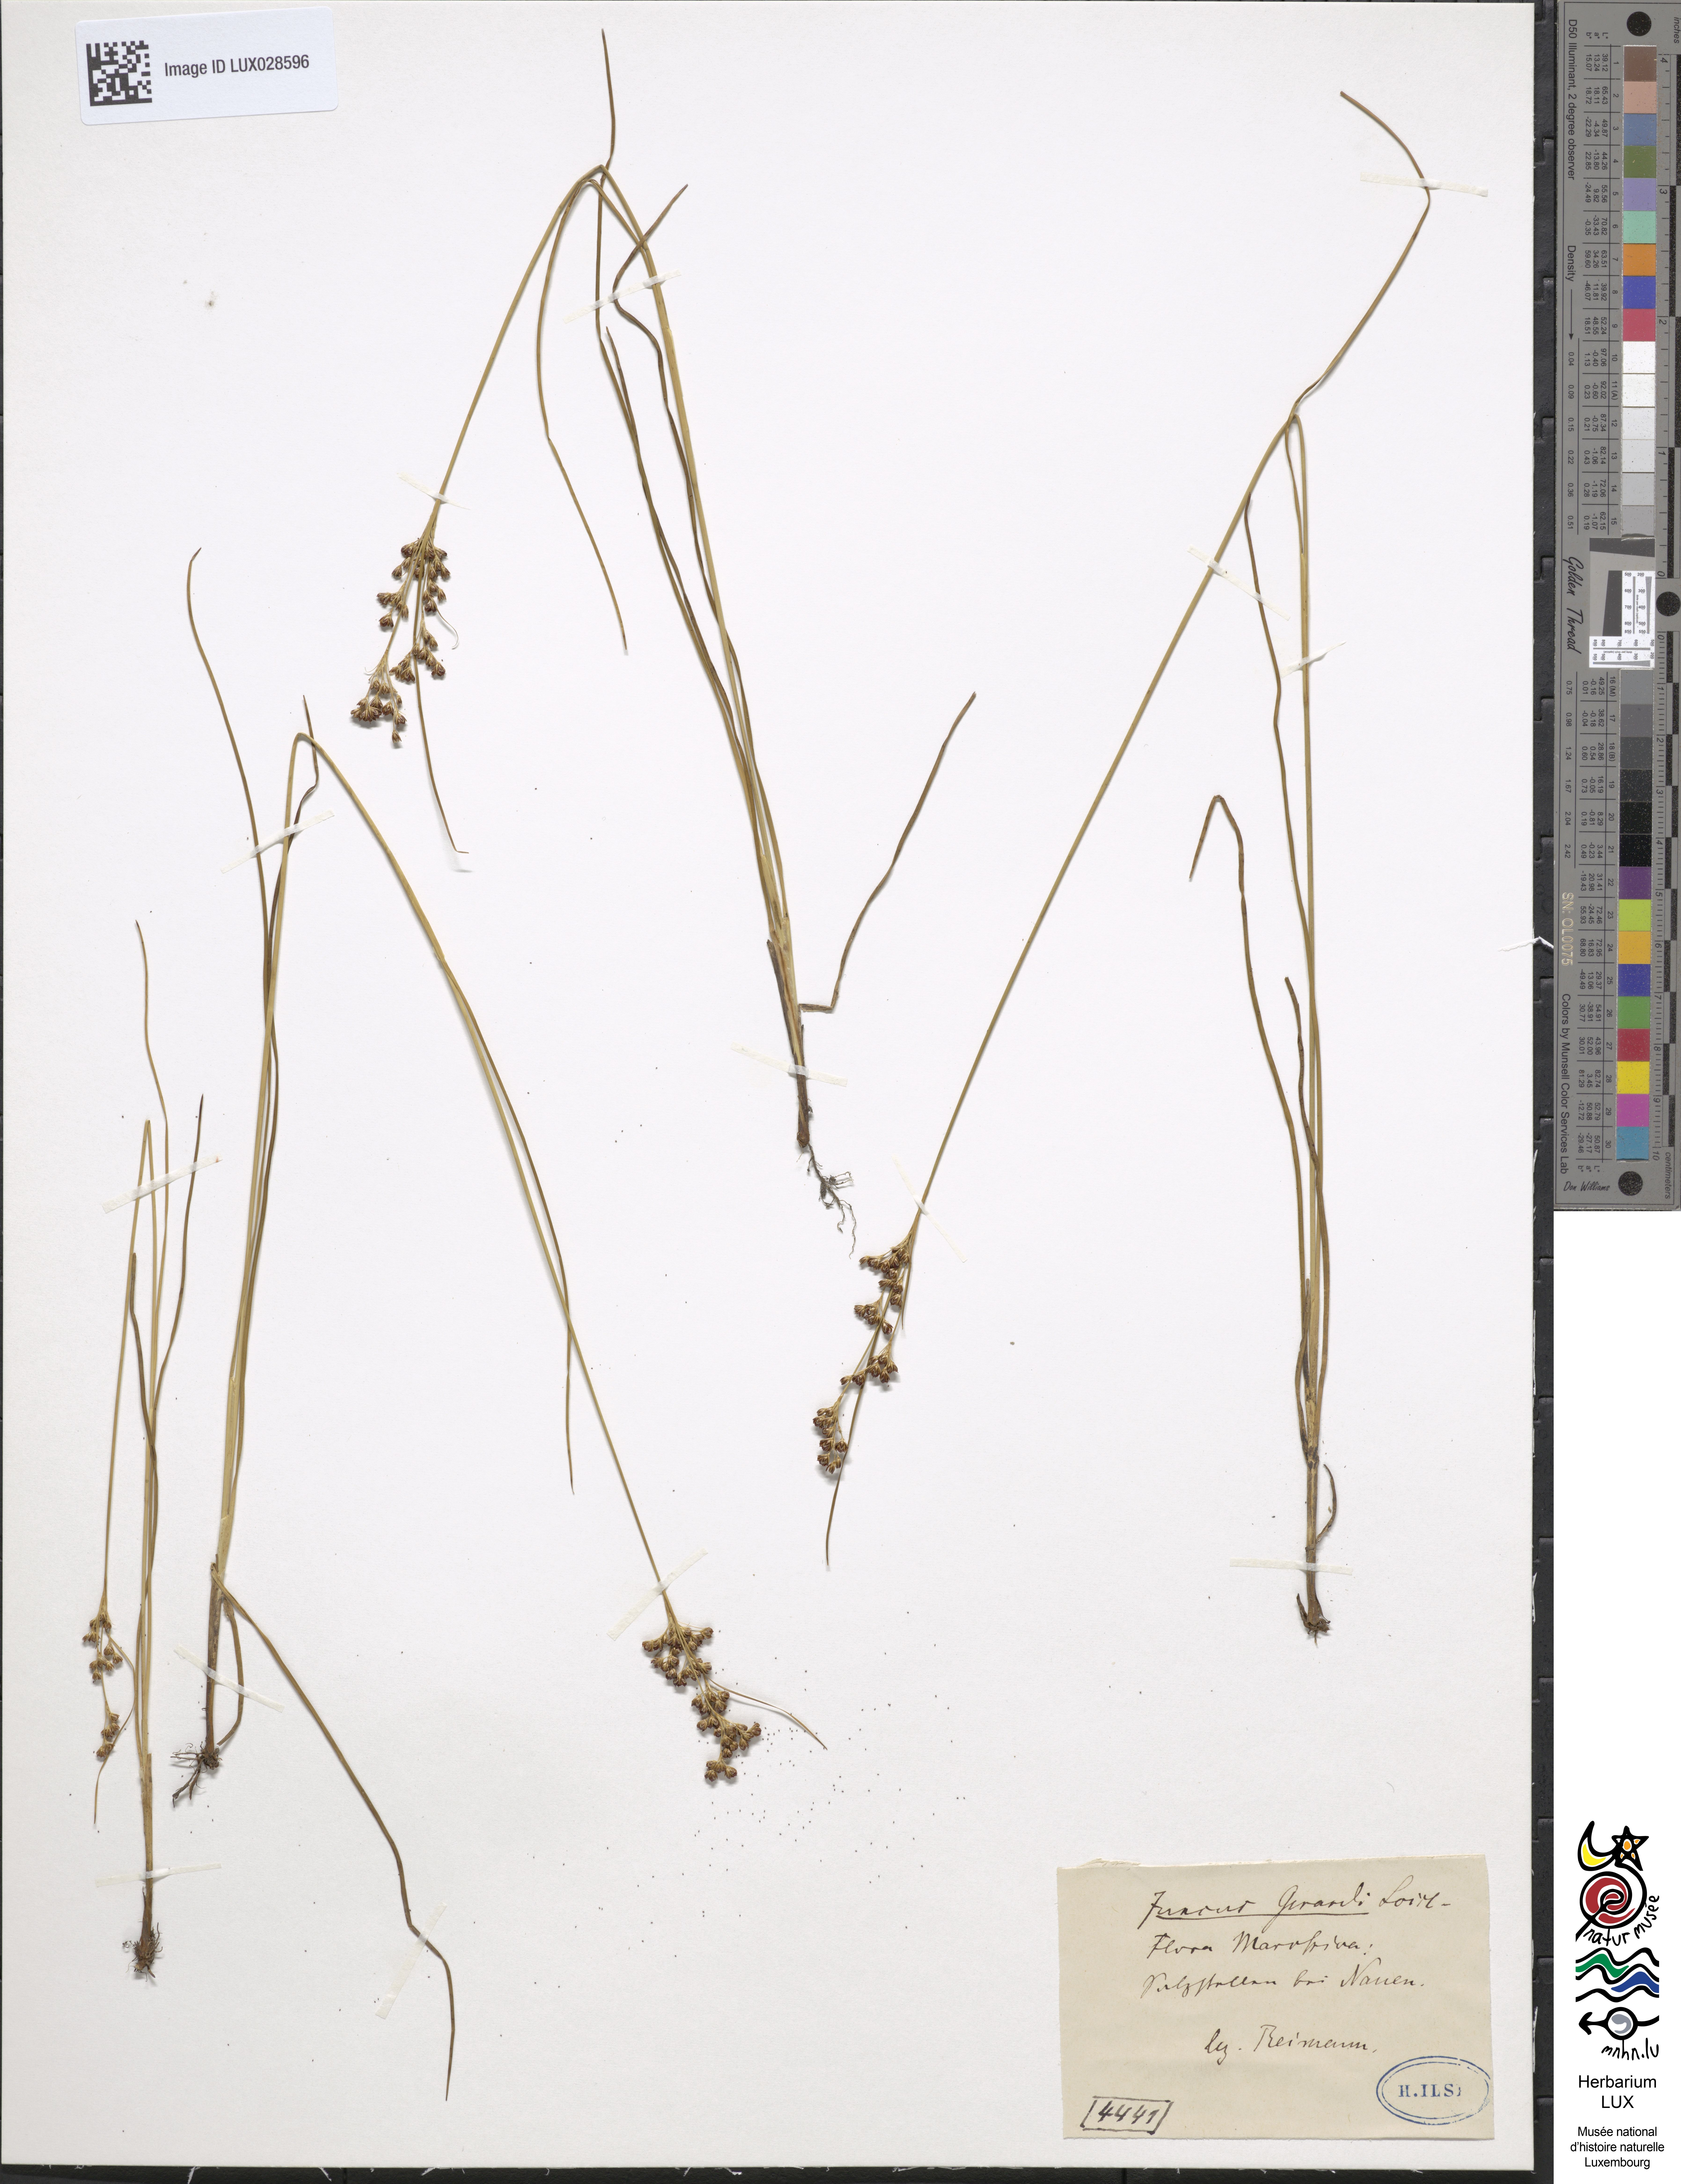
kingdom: Plantae
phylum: Tracheophyta
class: Liliopsida
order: Poales
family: Juncaceae
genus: Juncus
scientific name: Juncus gerardi
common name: Saltmarsh rush
